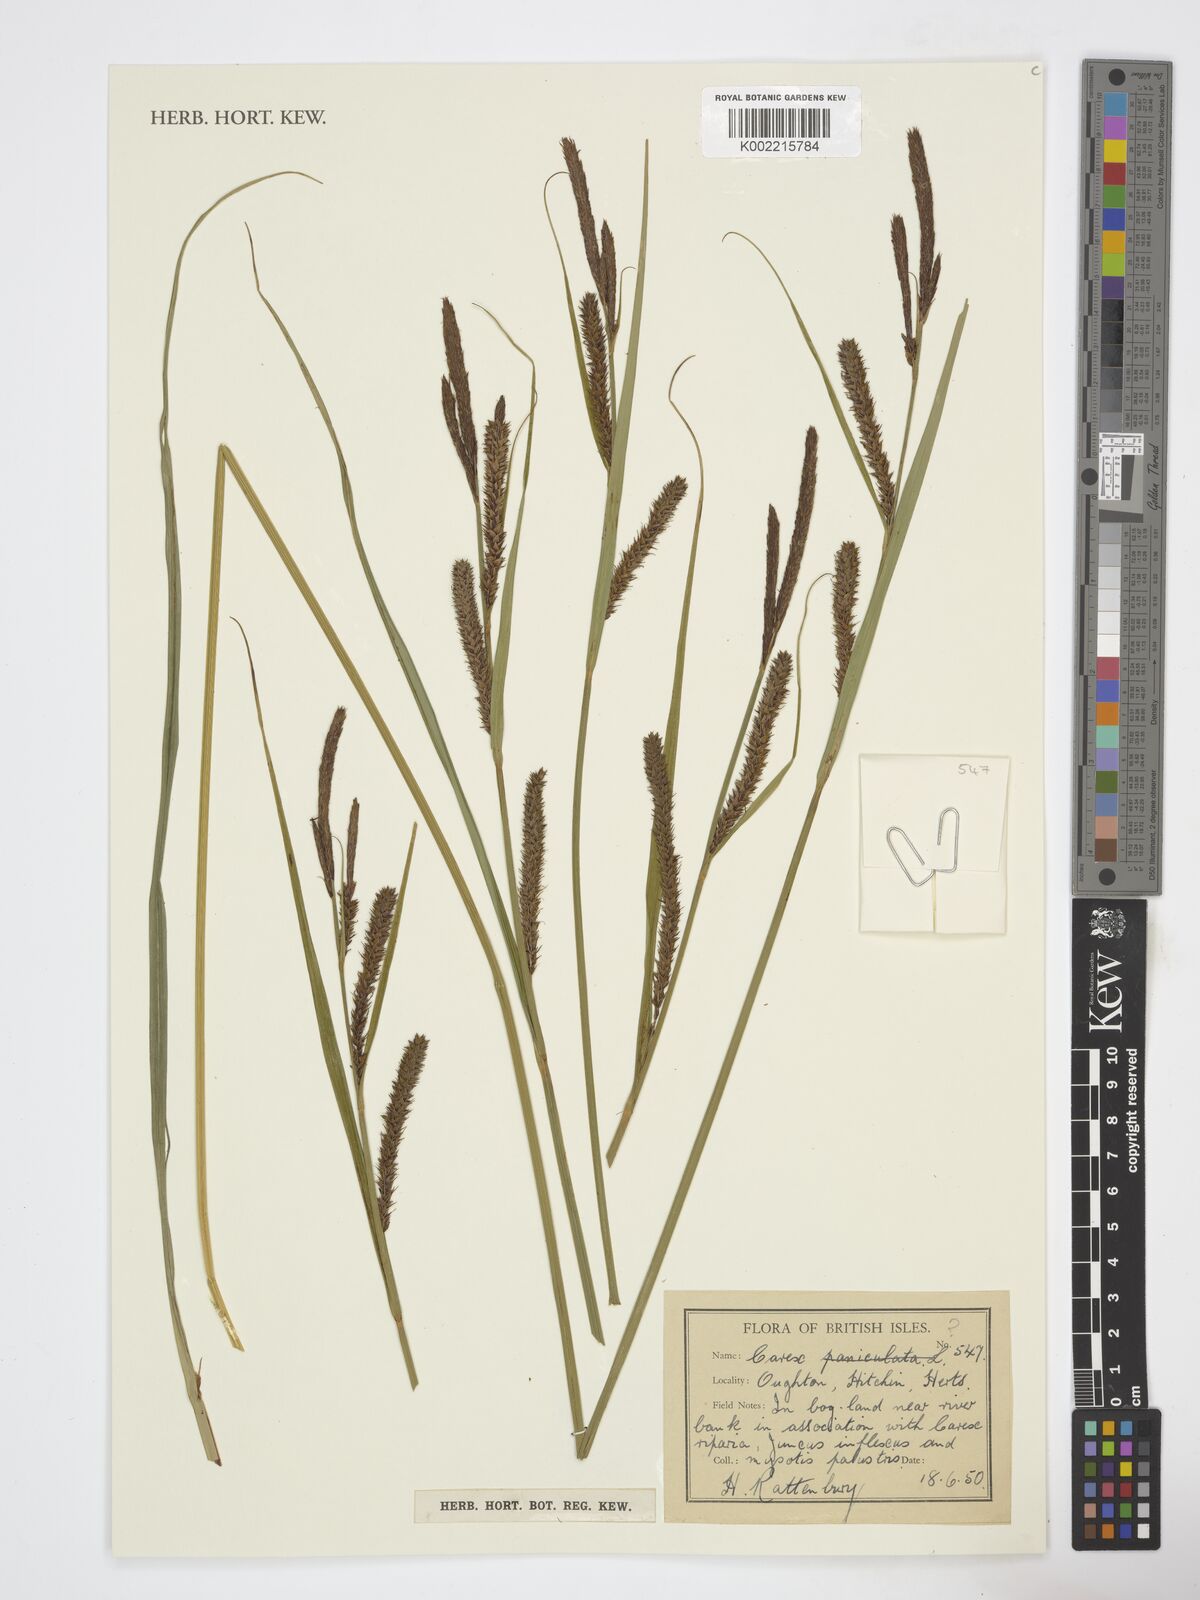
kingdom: Plantae
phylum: Tracheophyta
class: Liliopsida
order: Poales
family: Cyperaceae
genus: Carex
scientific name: Carex
